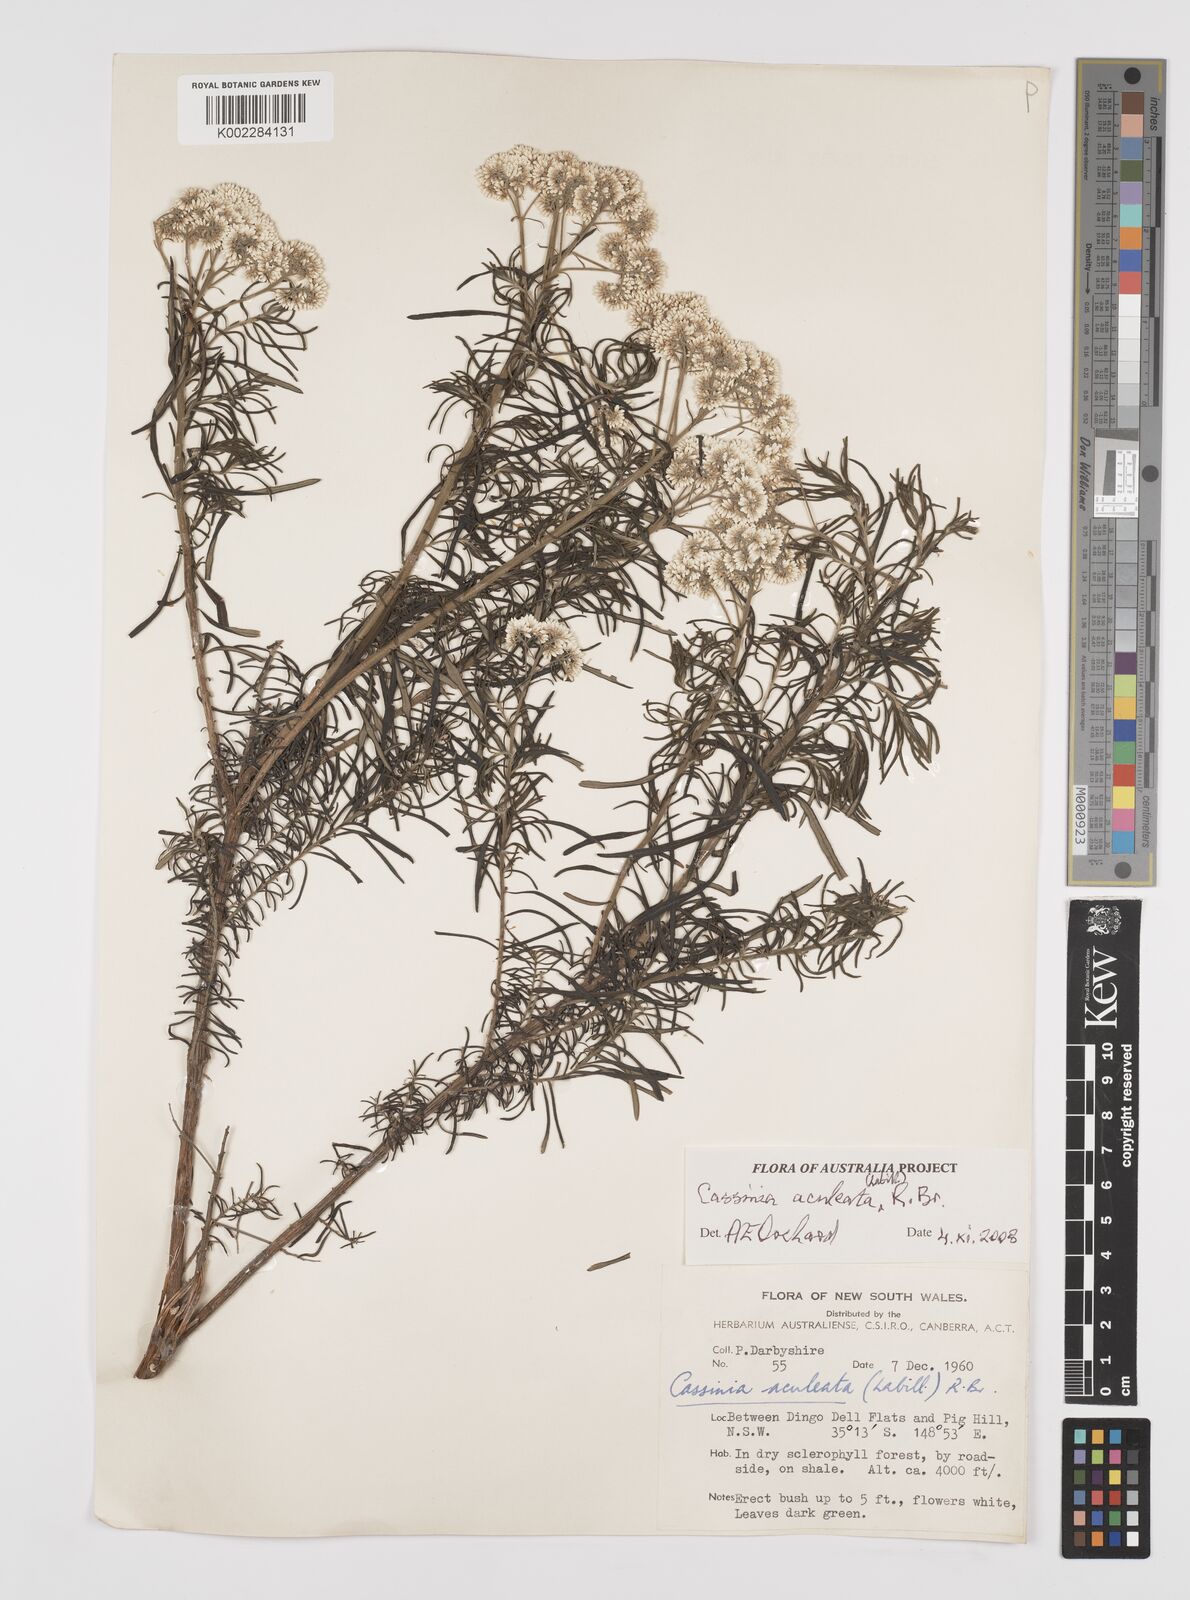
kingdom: Plantae
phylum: Tracheophyta
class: Magnoliopsida
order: Asterales
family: Asteraceae
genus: Cassinia
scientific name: Cassinia aculeata
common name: Australian tauhinu
